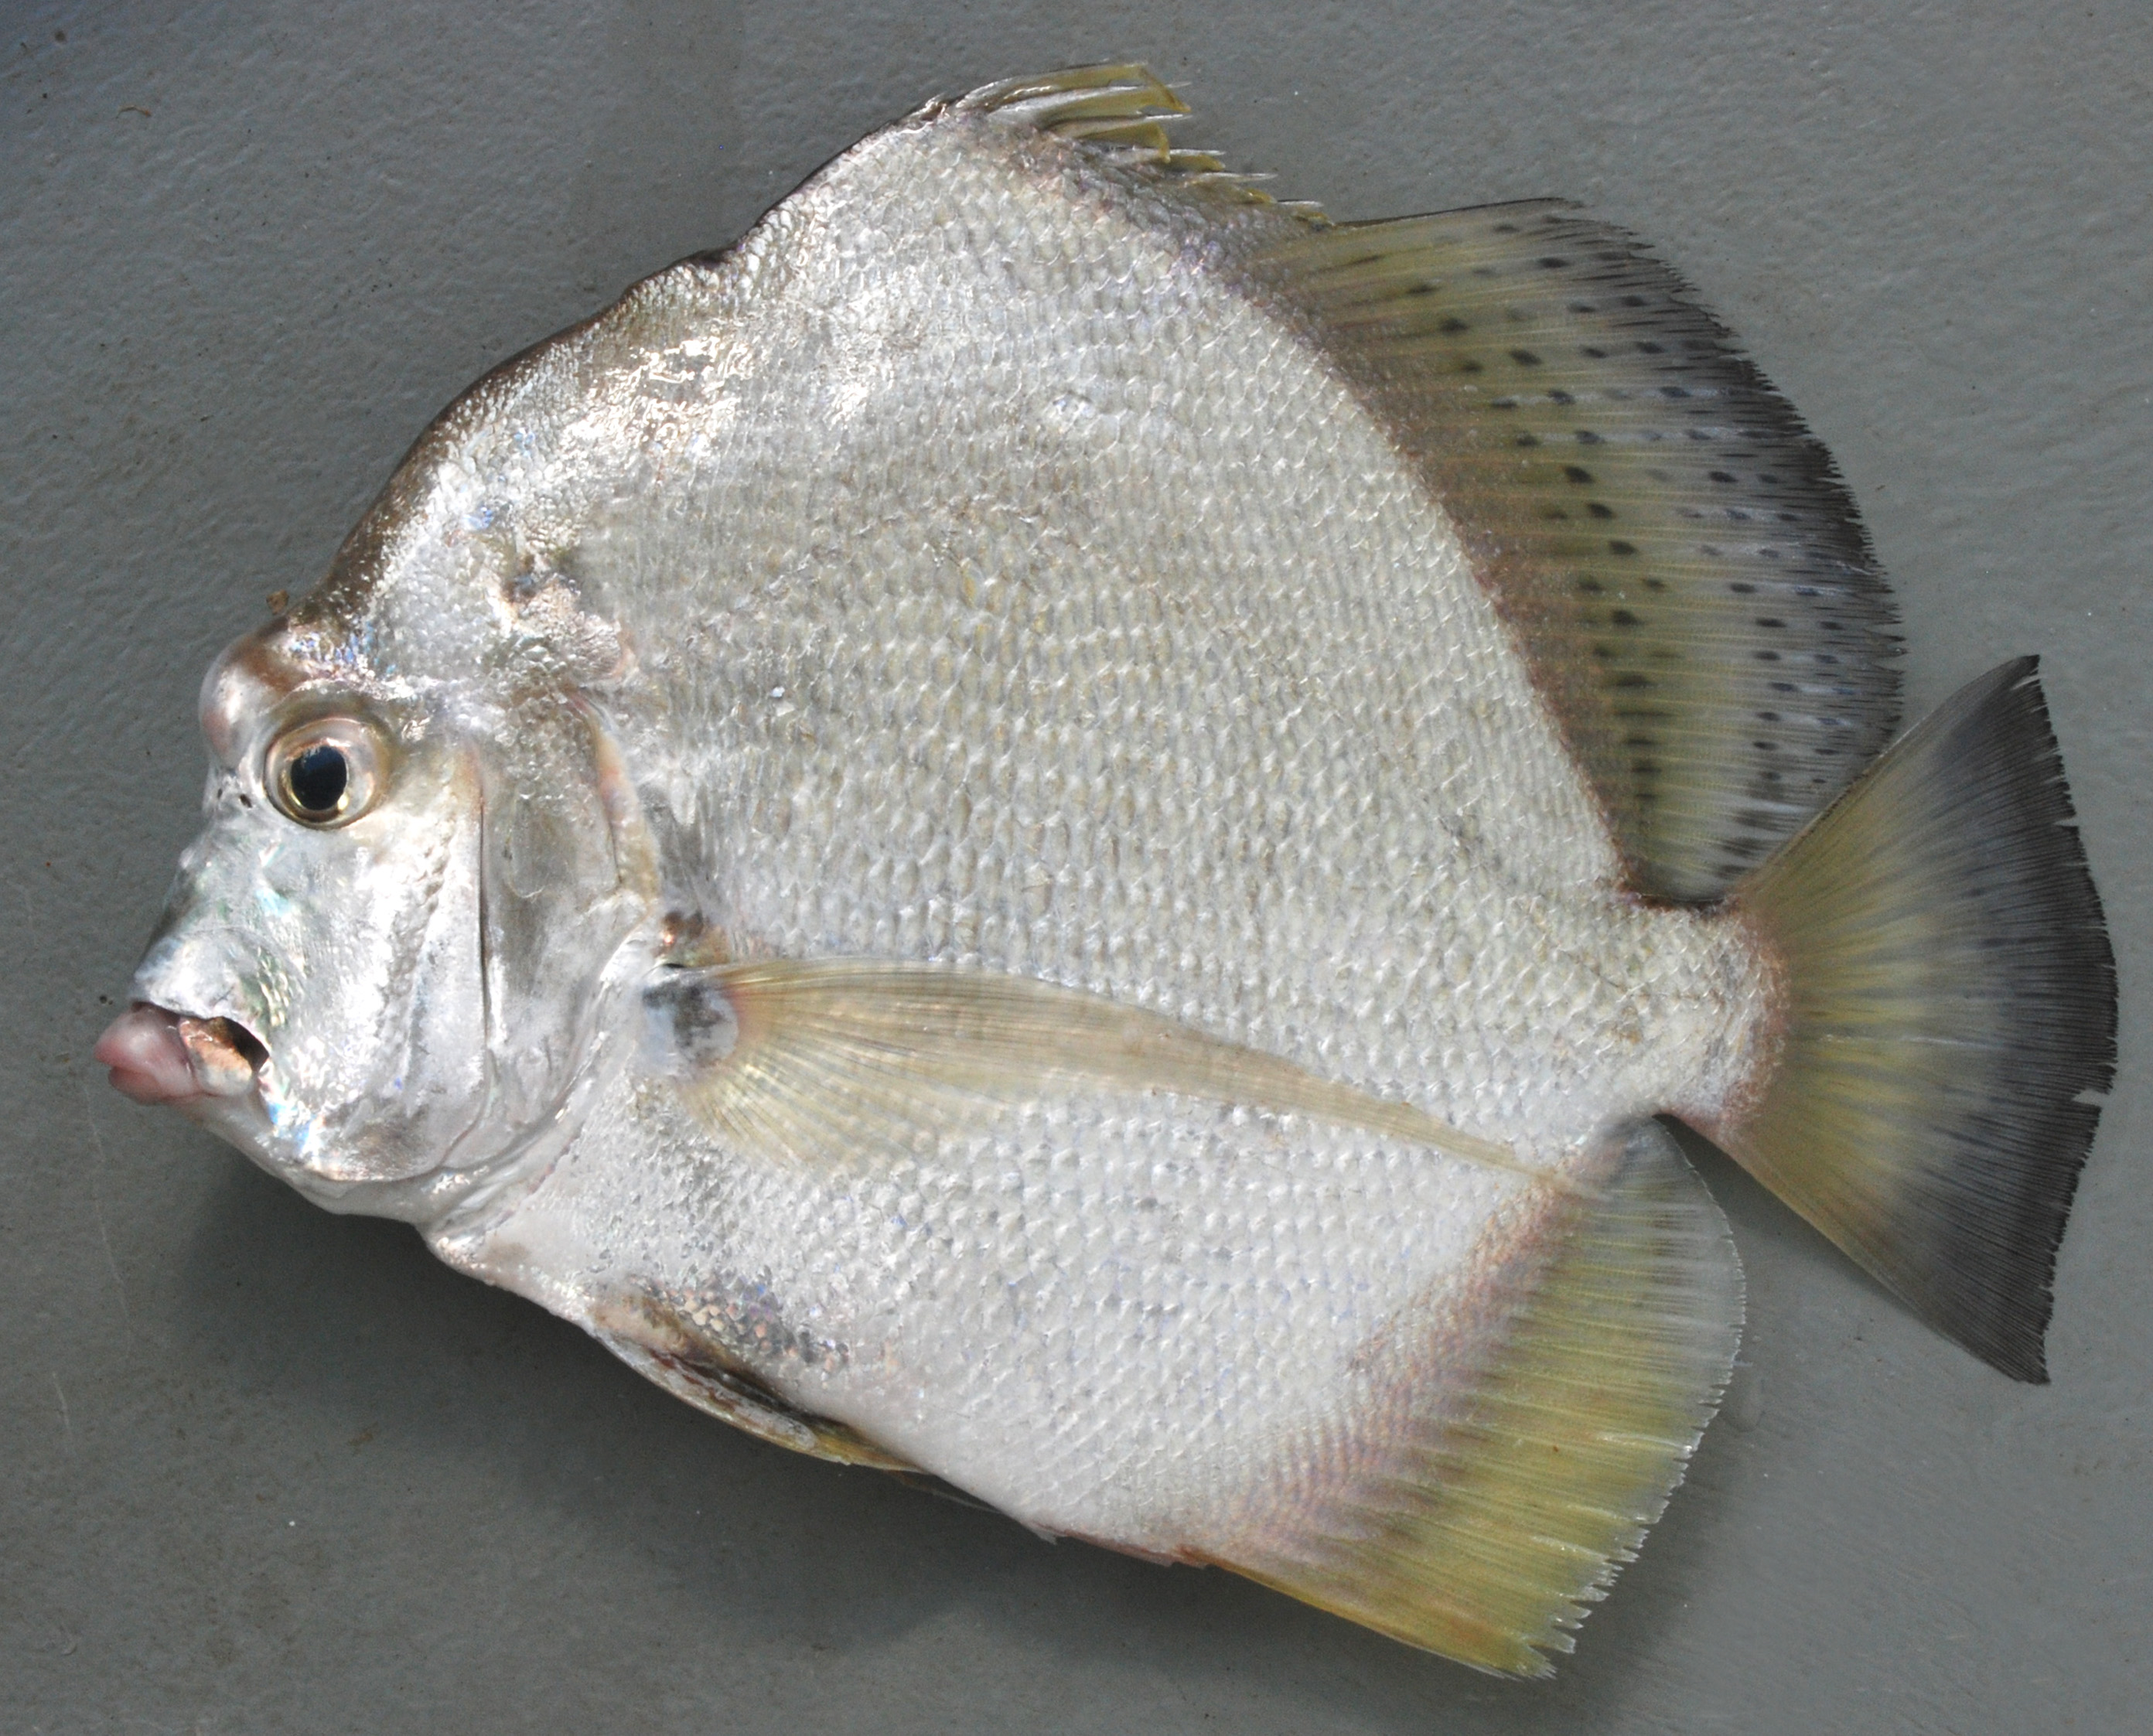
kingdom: Animalia
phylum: Chordata
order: Perciformes
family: Drepaneidae
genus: Drepane
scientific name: Drepane longimana
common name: Concertina fish
